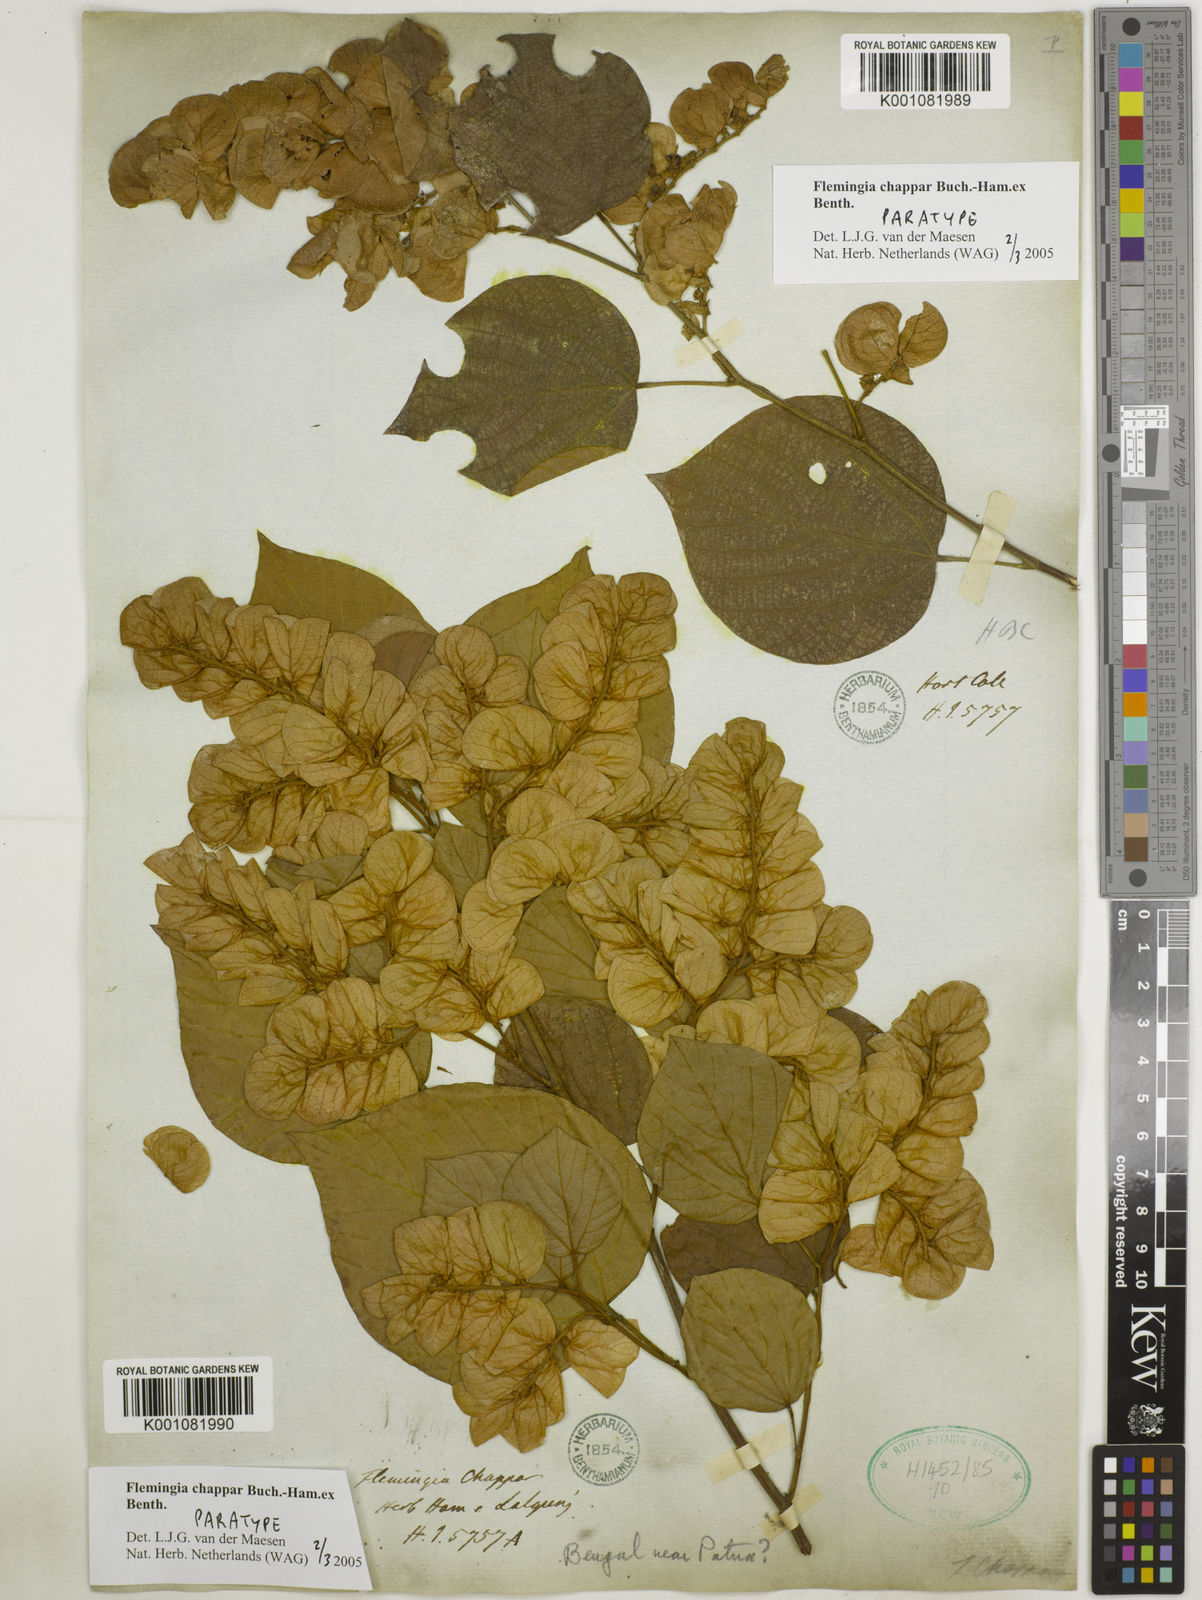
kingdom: Plantae
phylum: Tracheophyta
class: Magnoliopsida
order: Fabales
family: Fabaceae
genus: Flemingia
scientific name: Flemingia chappar
